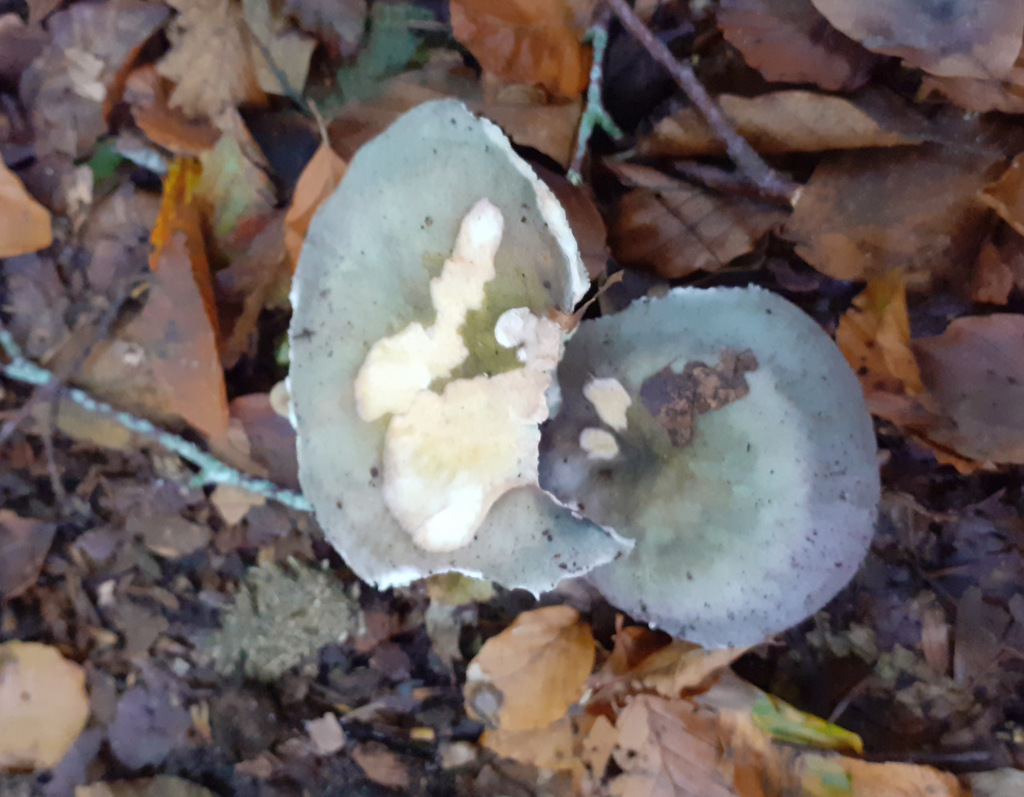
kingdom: Fungi
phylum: Basidiomycota
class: Agaricomycetes
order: Russulales
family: Russulaceae
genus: Russula
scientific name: Russula
